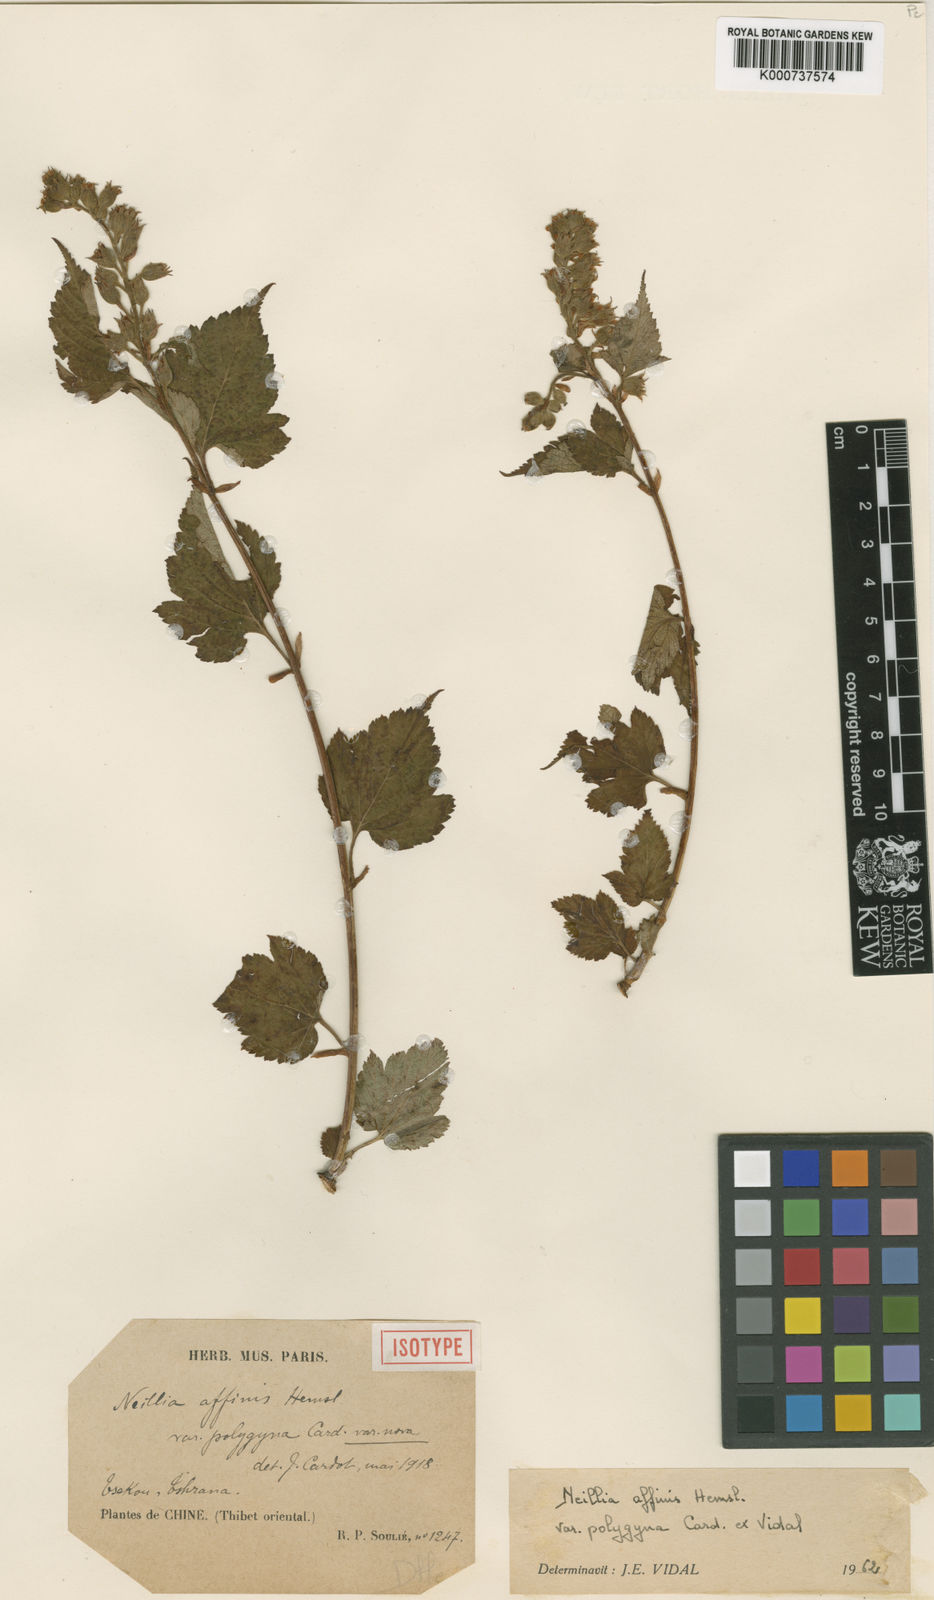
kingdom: Plantae
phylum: Tracheophyta
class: Magnoliopsida
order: Rosales
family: Rosaceae
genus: Neillia
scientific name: Neillia affinis
